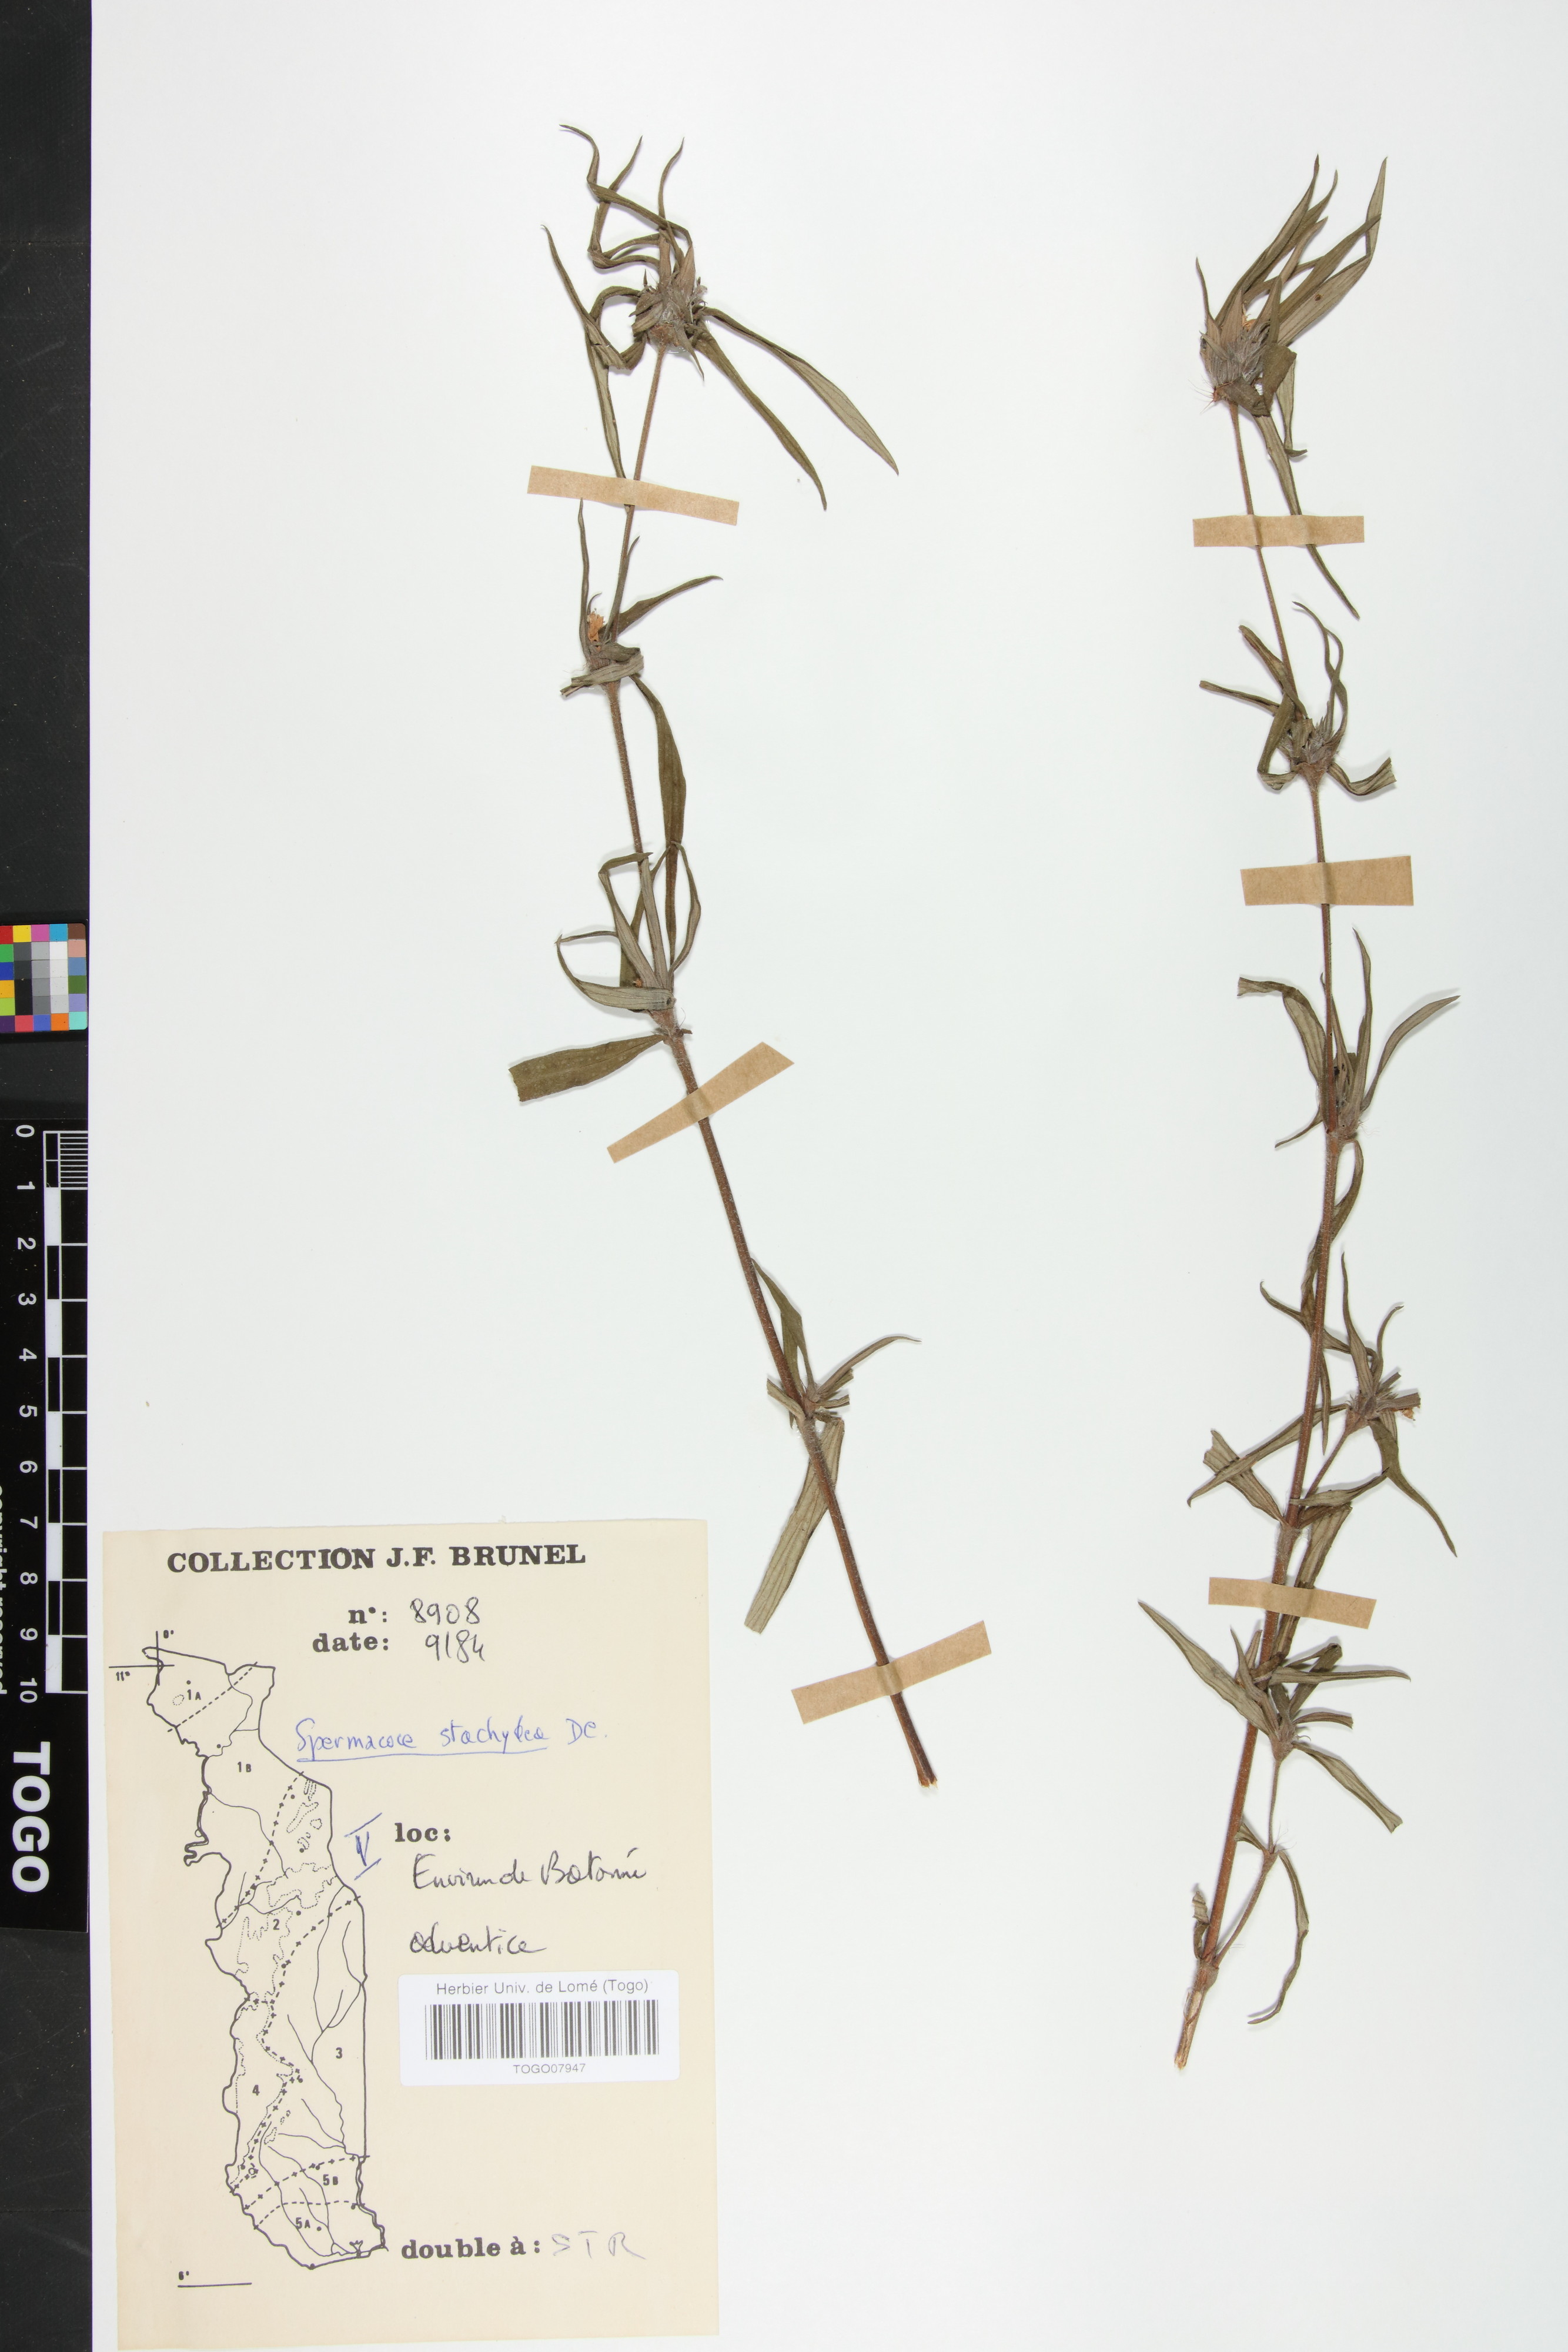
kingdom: Plantae
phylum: Tracheophyta
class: Magnoliopsida
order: Gentianales
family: Rubiaceae
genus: Spermacoce
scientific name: Spermacoce stachydea
